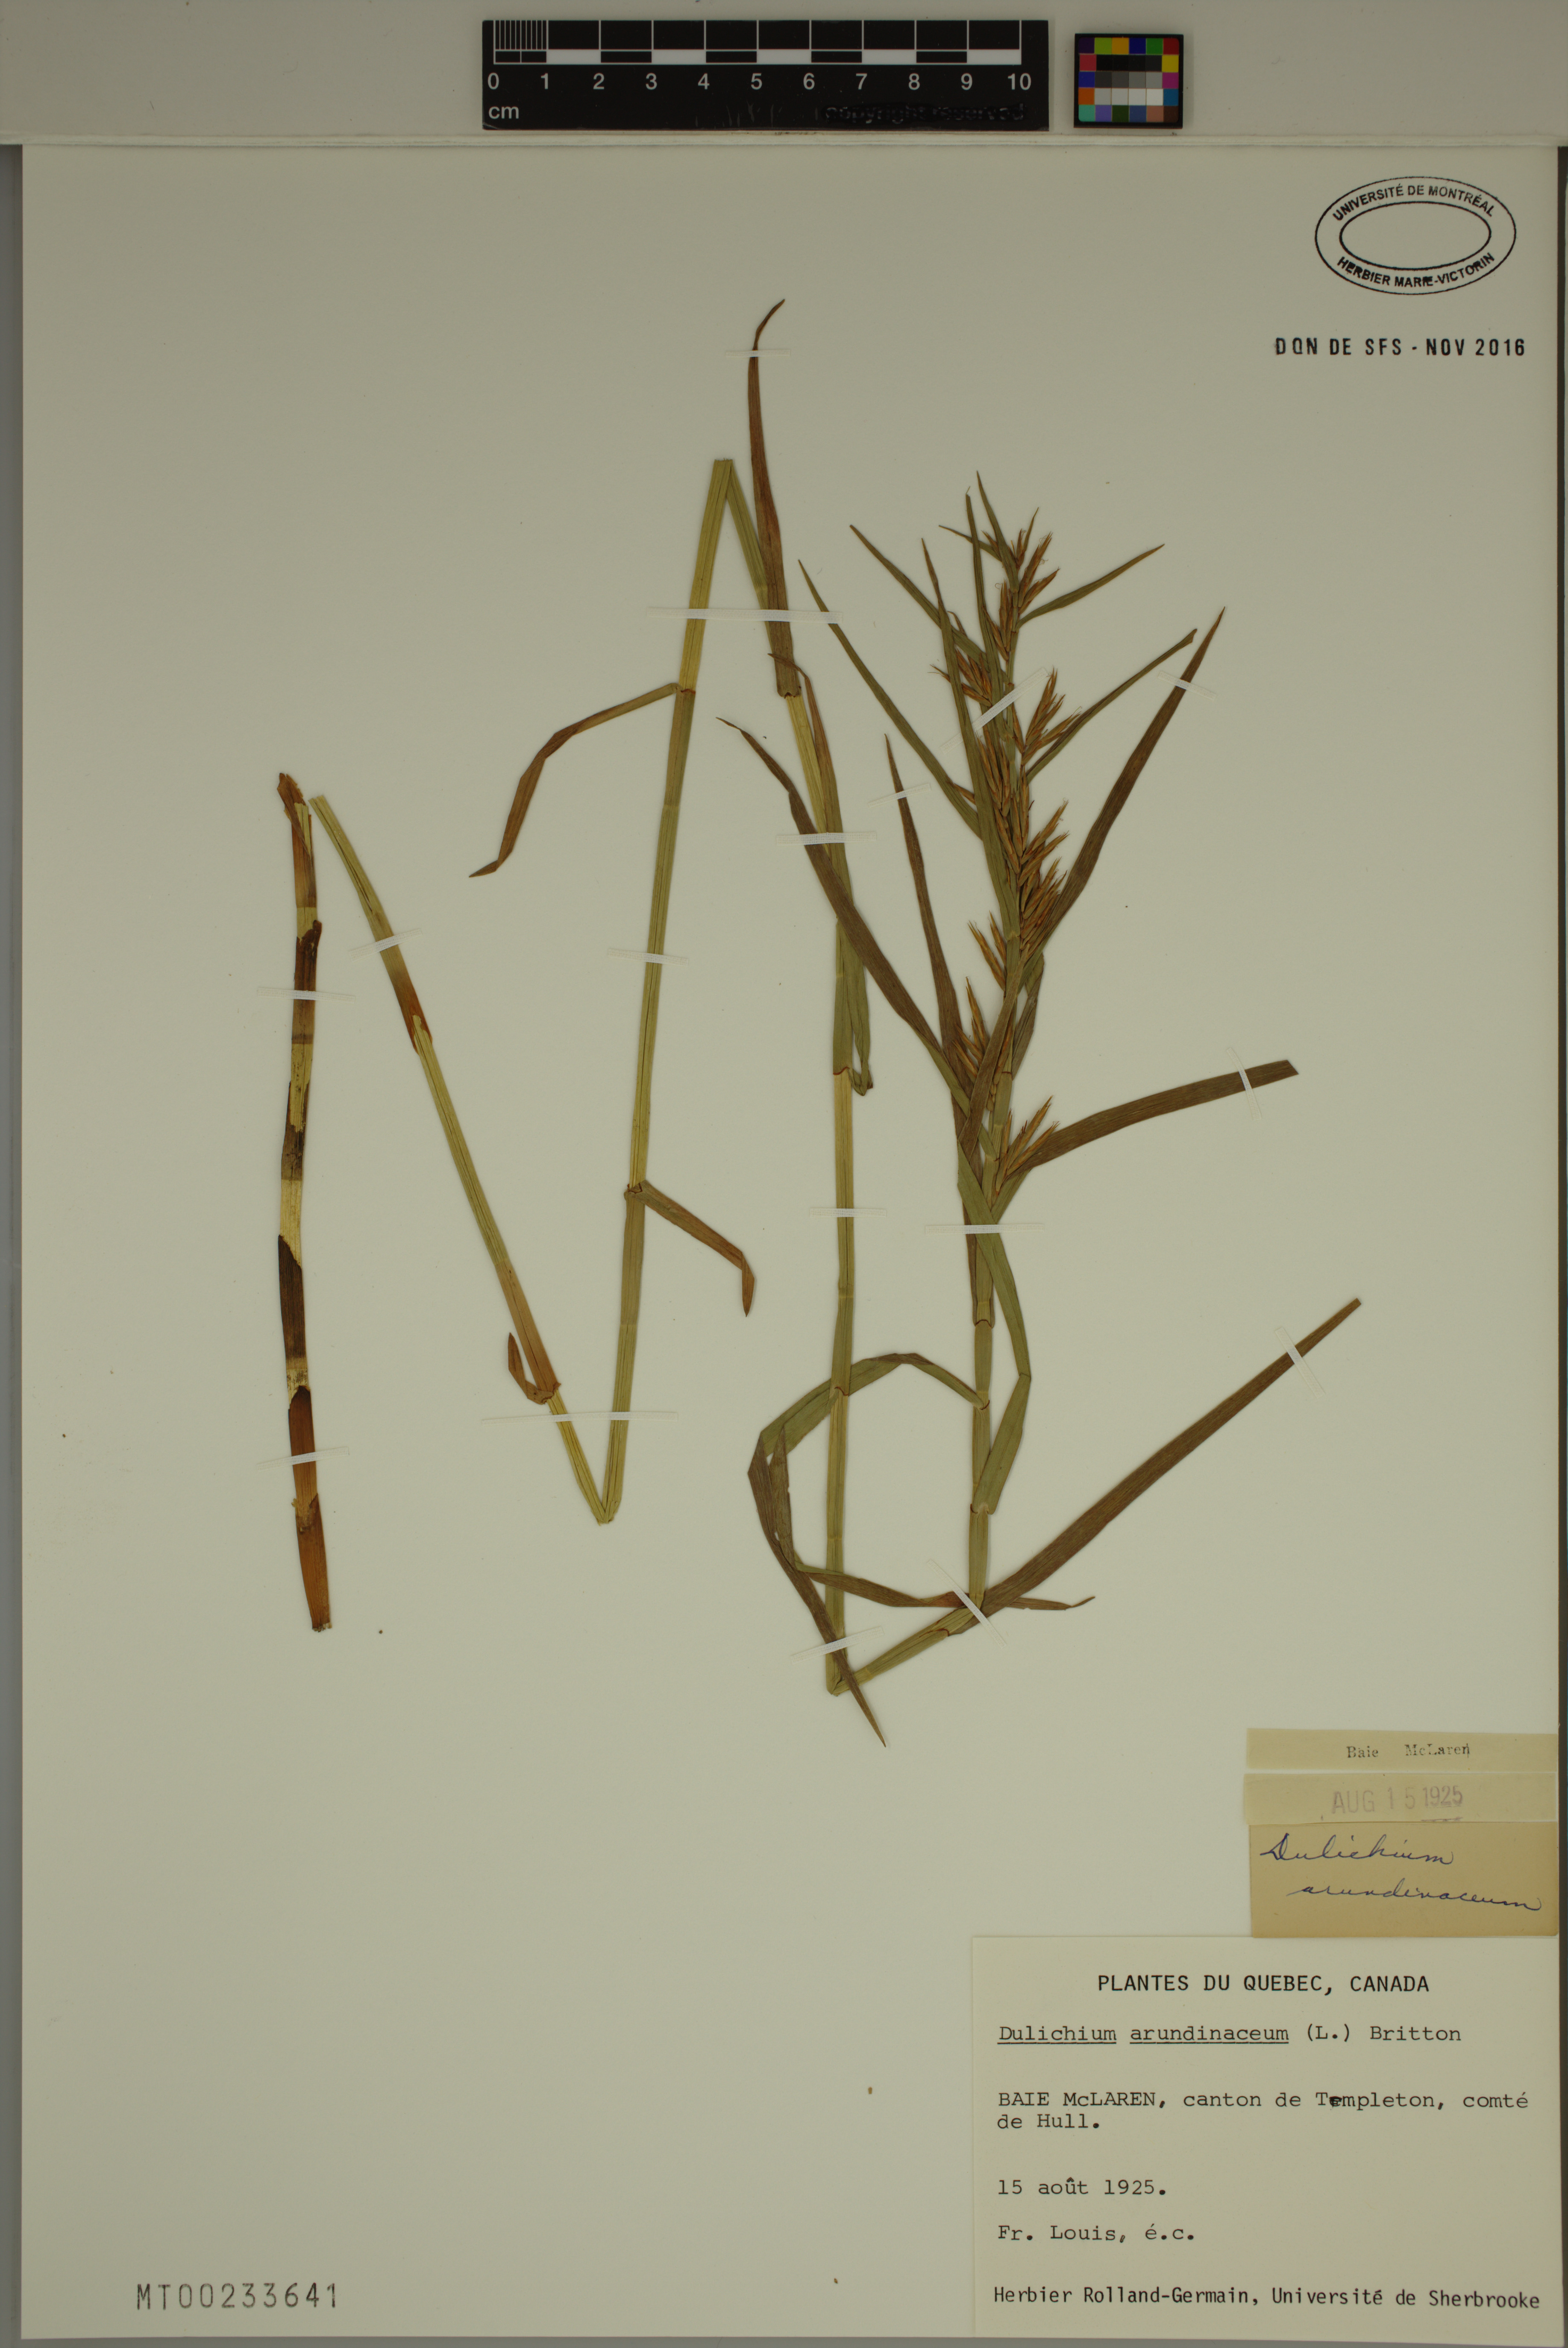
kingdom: Plantae
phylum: Tracheophyta
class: Liliopsida
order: Poales
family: Cyperaceae
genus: Dulichium
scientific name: Dulichium arundinaceum
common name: Three-way sedge
